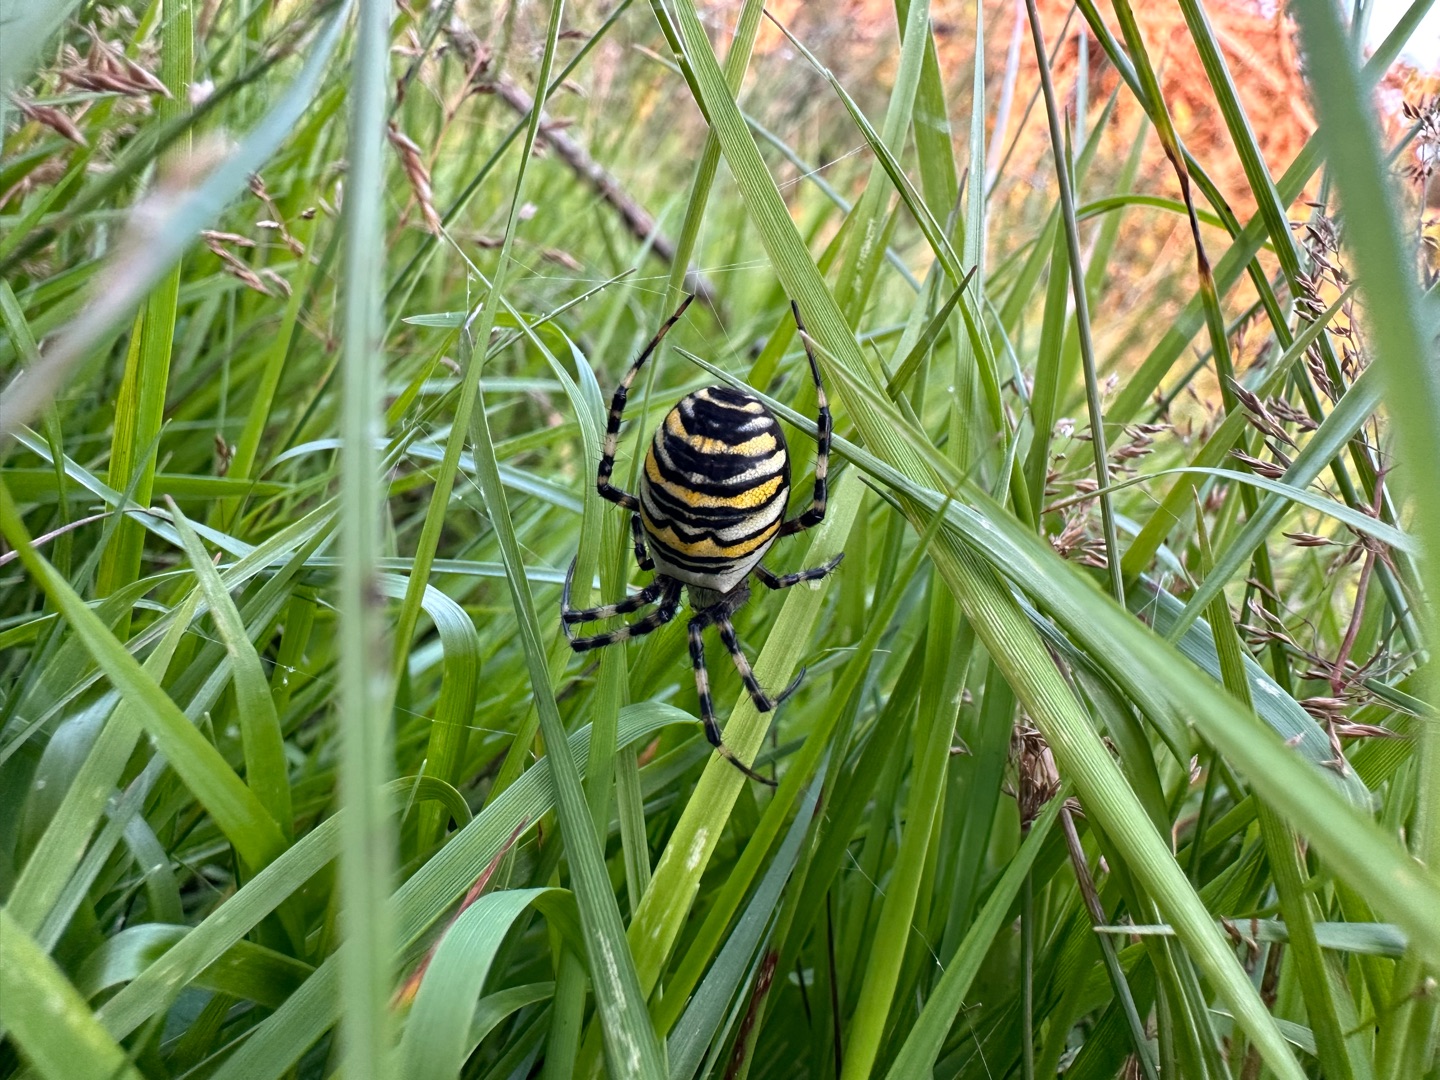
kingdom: Animalia
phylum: Arthropoda
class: Arachnida
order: Araneae
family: Araneidae
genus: Argiope
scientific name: Argiope bruennichi
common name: Hvepseedderkop
